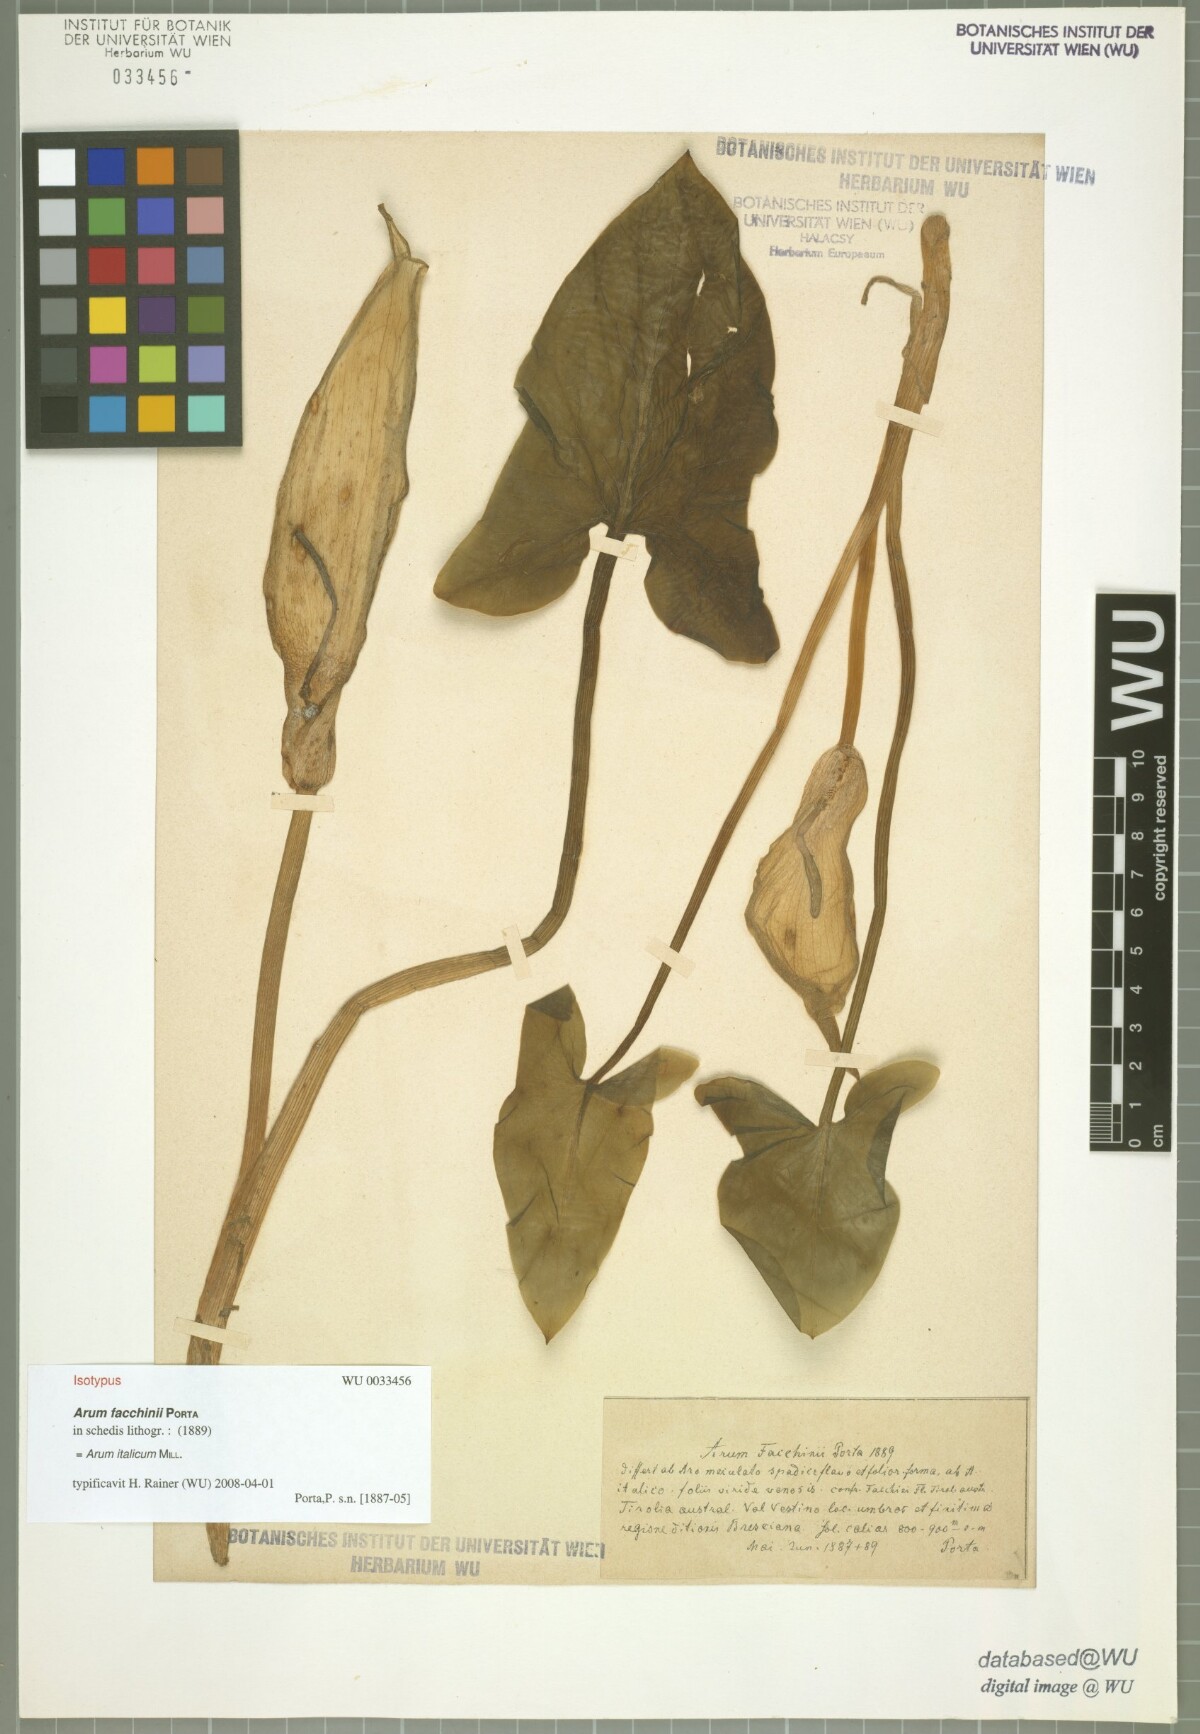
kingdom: Plantae
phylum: Tracheophyta
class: Liliopsida
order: Alismatales
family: Araceae
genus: Arum
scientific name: Arum italicum
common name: Italian lords-and-ladies
